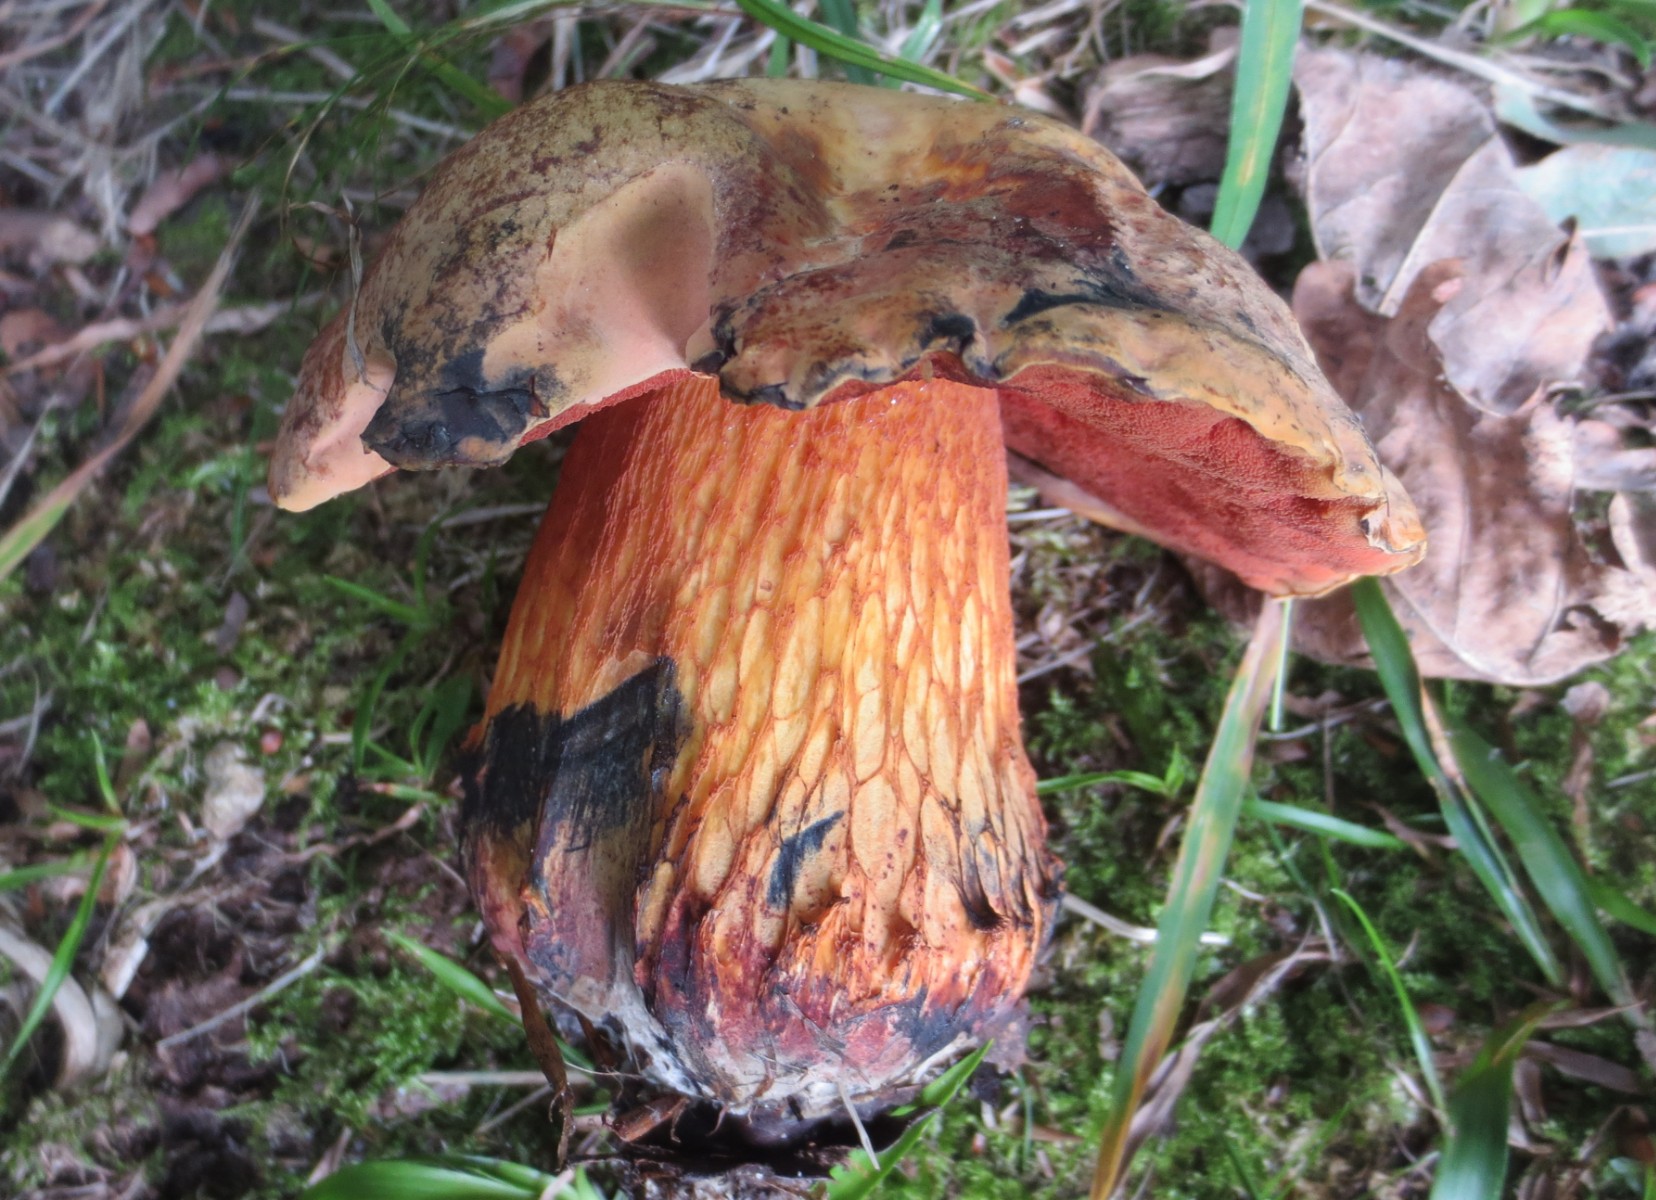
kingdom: Fungi
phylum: Basidiomycota
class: Agaricomycetes
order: Boletales
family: Boletaceae
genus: Suillellus
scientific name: Suillellus luridus
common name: netstokket indigorørhat
